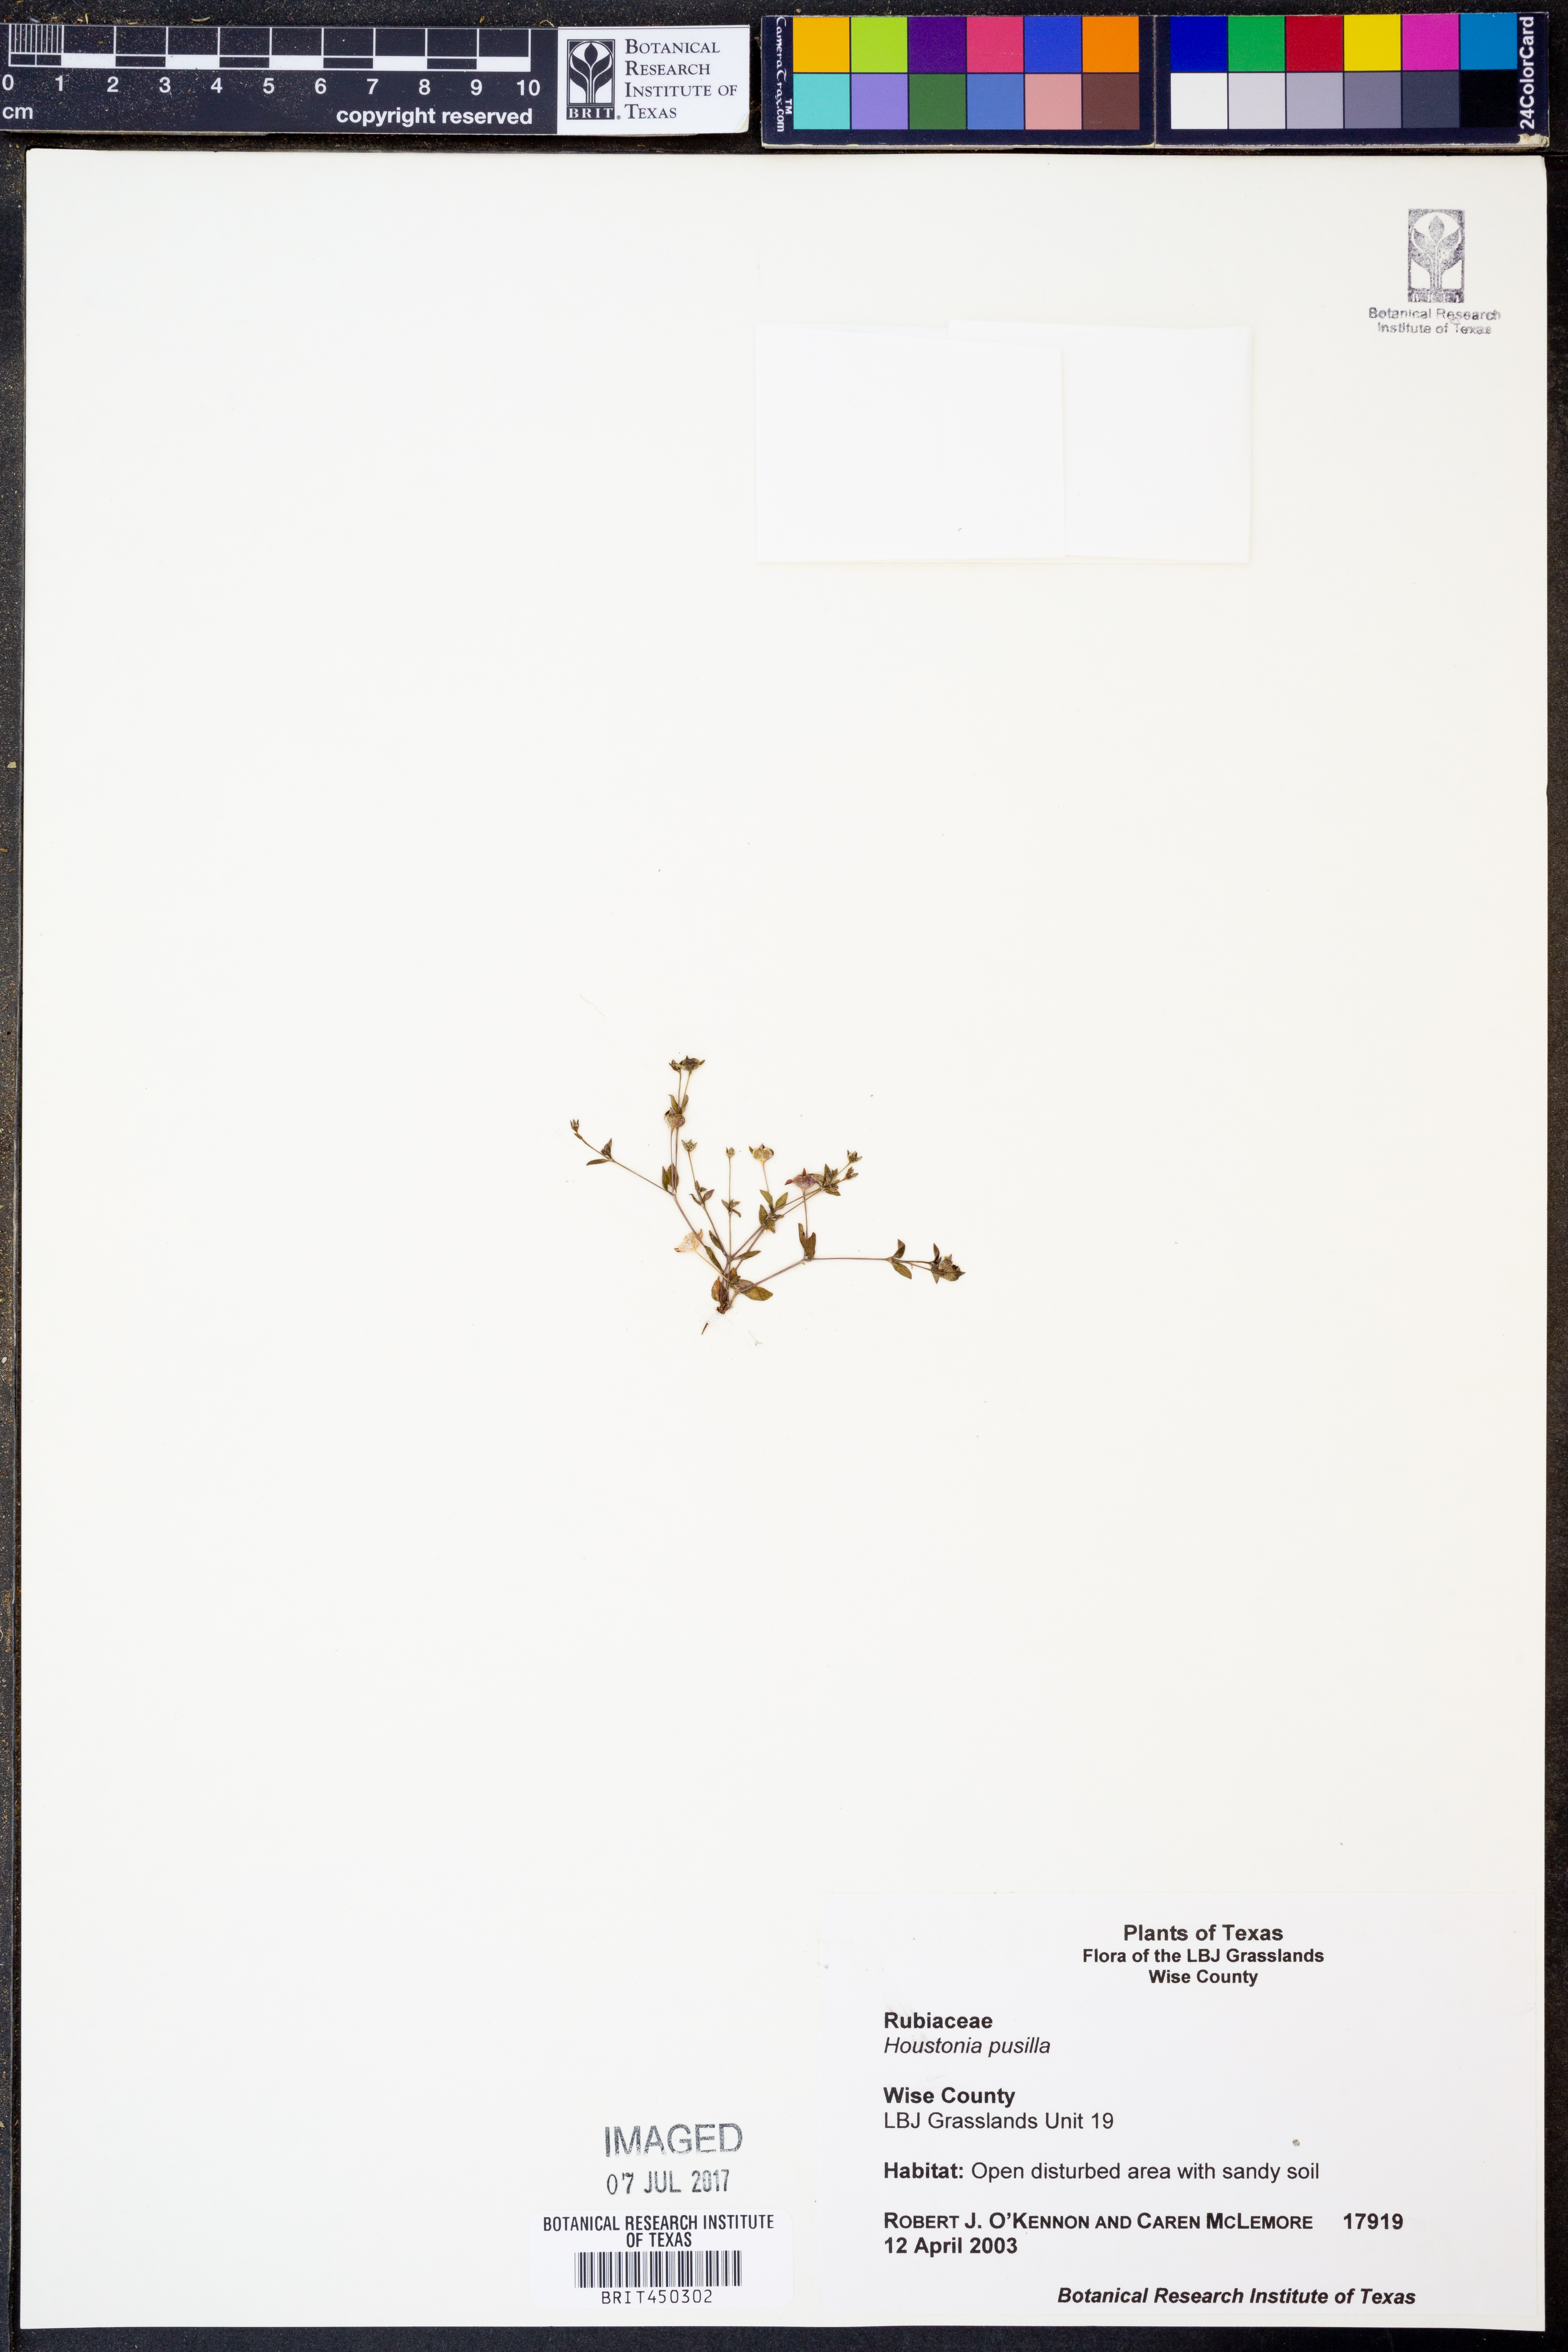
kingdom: Plantae
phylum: Tracheophyta
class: Magnoliopsida
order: Gentianales
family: Rubiaceae
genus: Houstonia
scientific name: Houstonia pusilla
